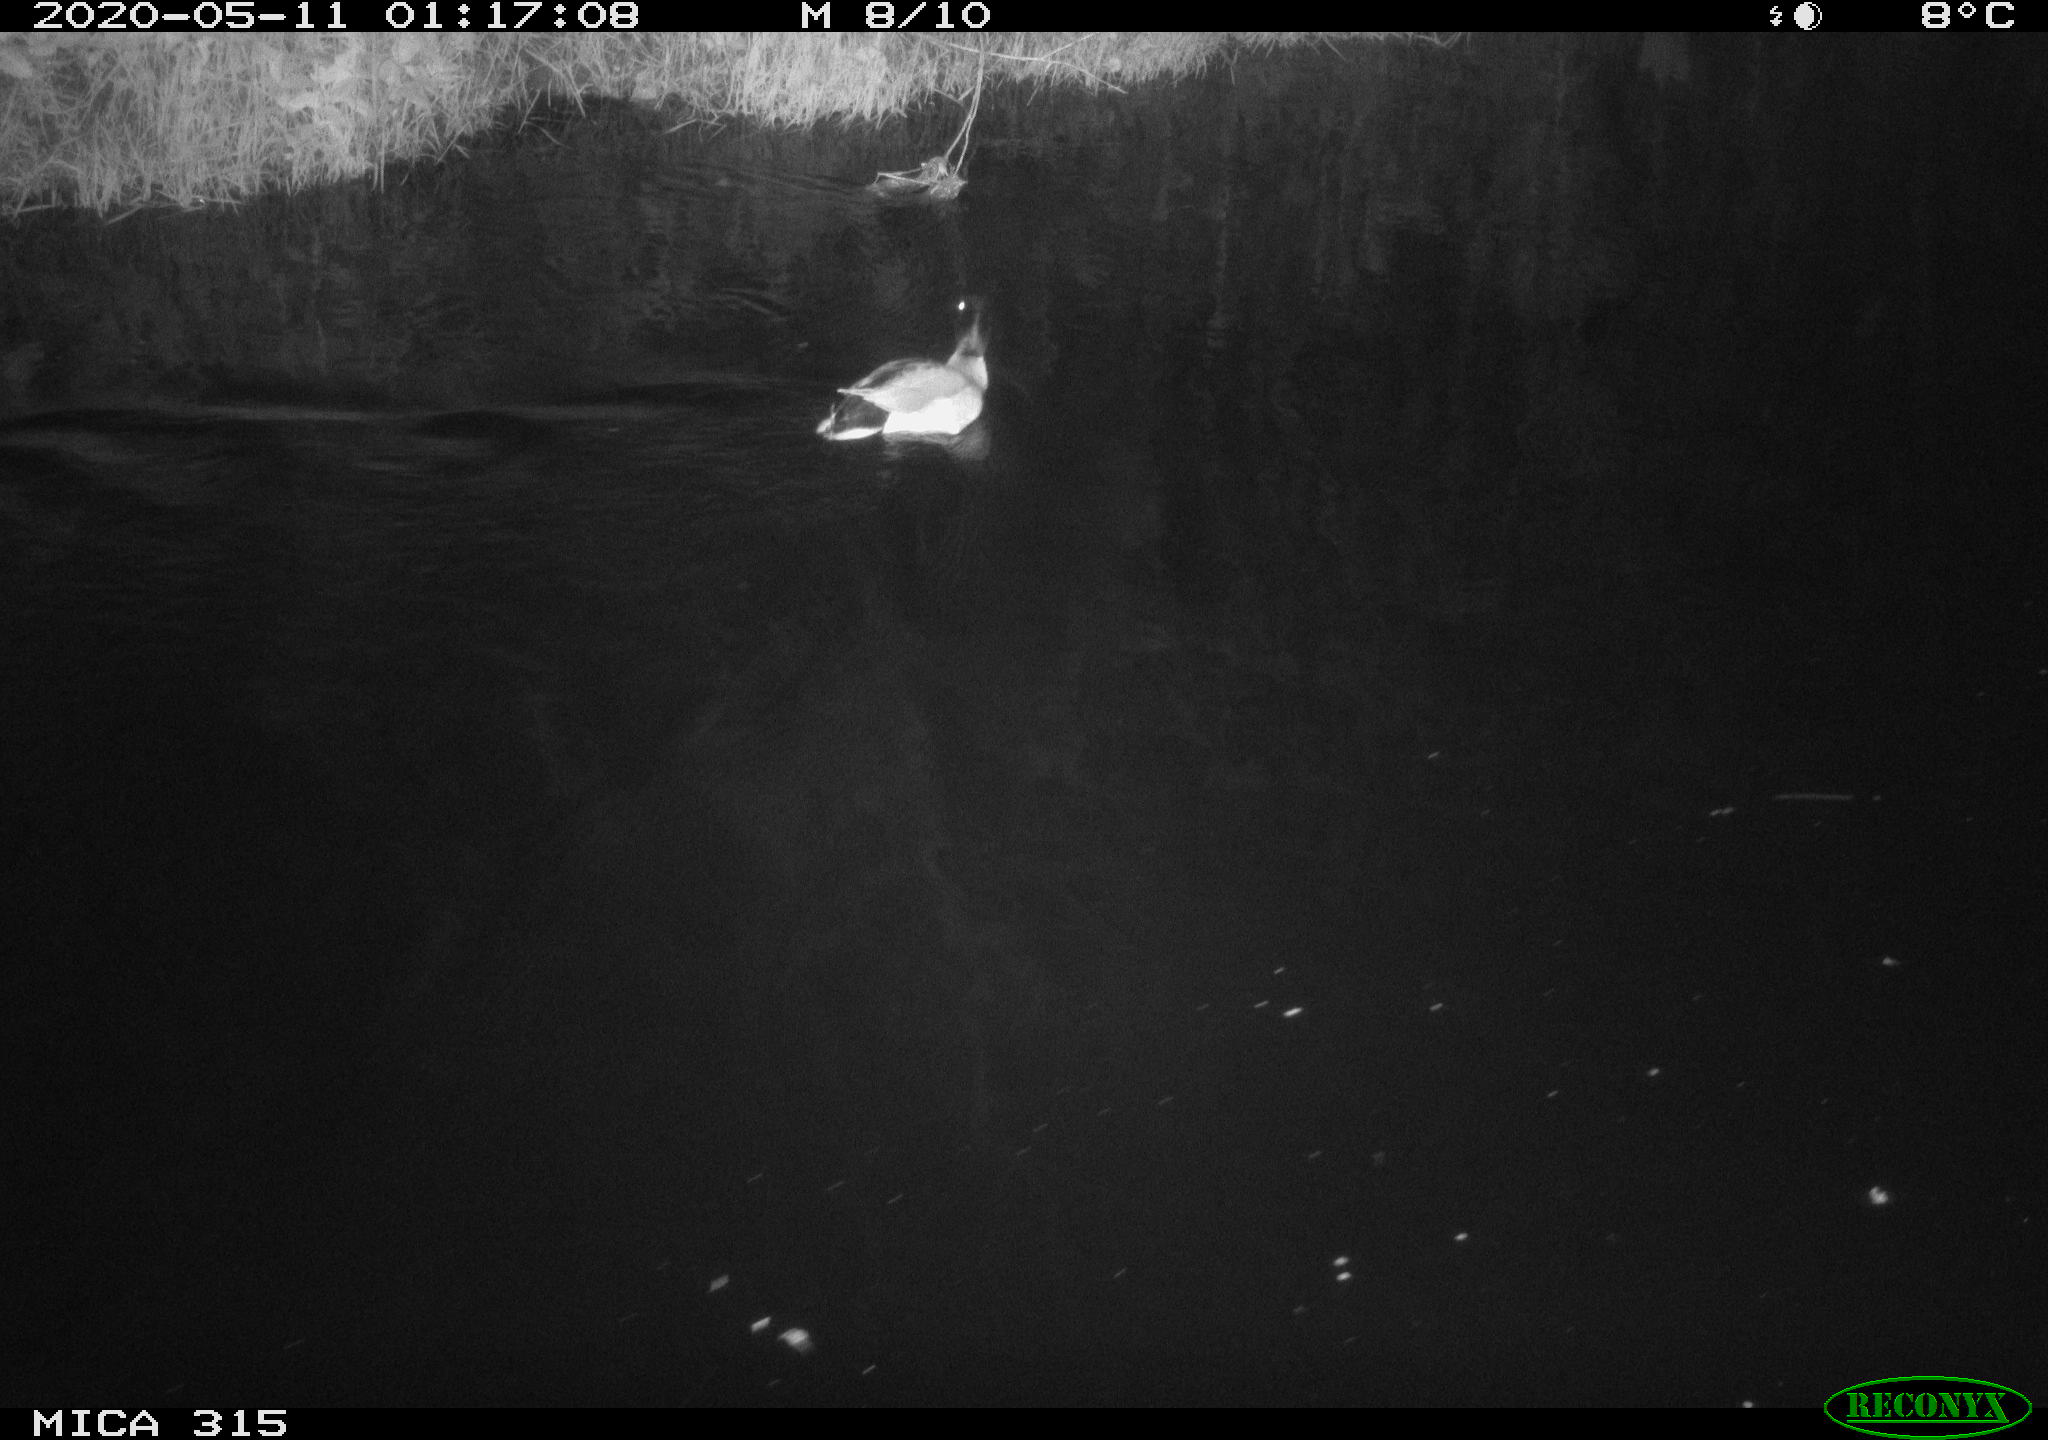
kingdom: Animalia
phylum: Chordata
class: Aves
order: Anseriformes
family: Anatidae
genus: Anas
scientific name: Anas platyrhynchos
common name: Mallard
